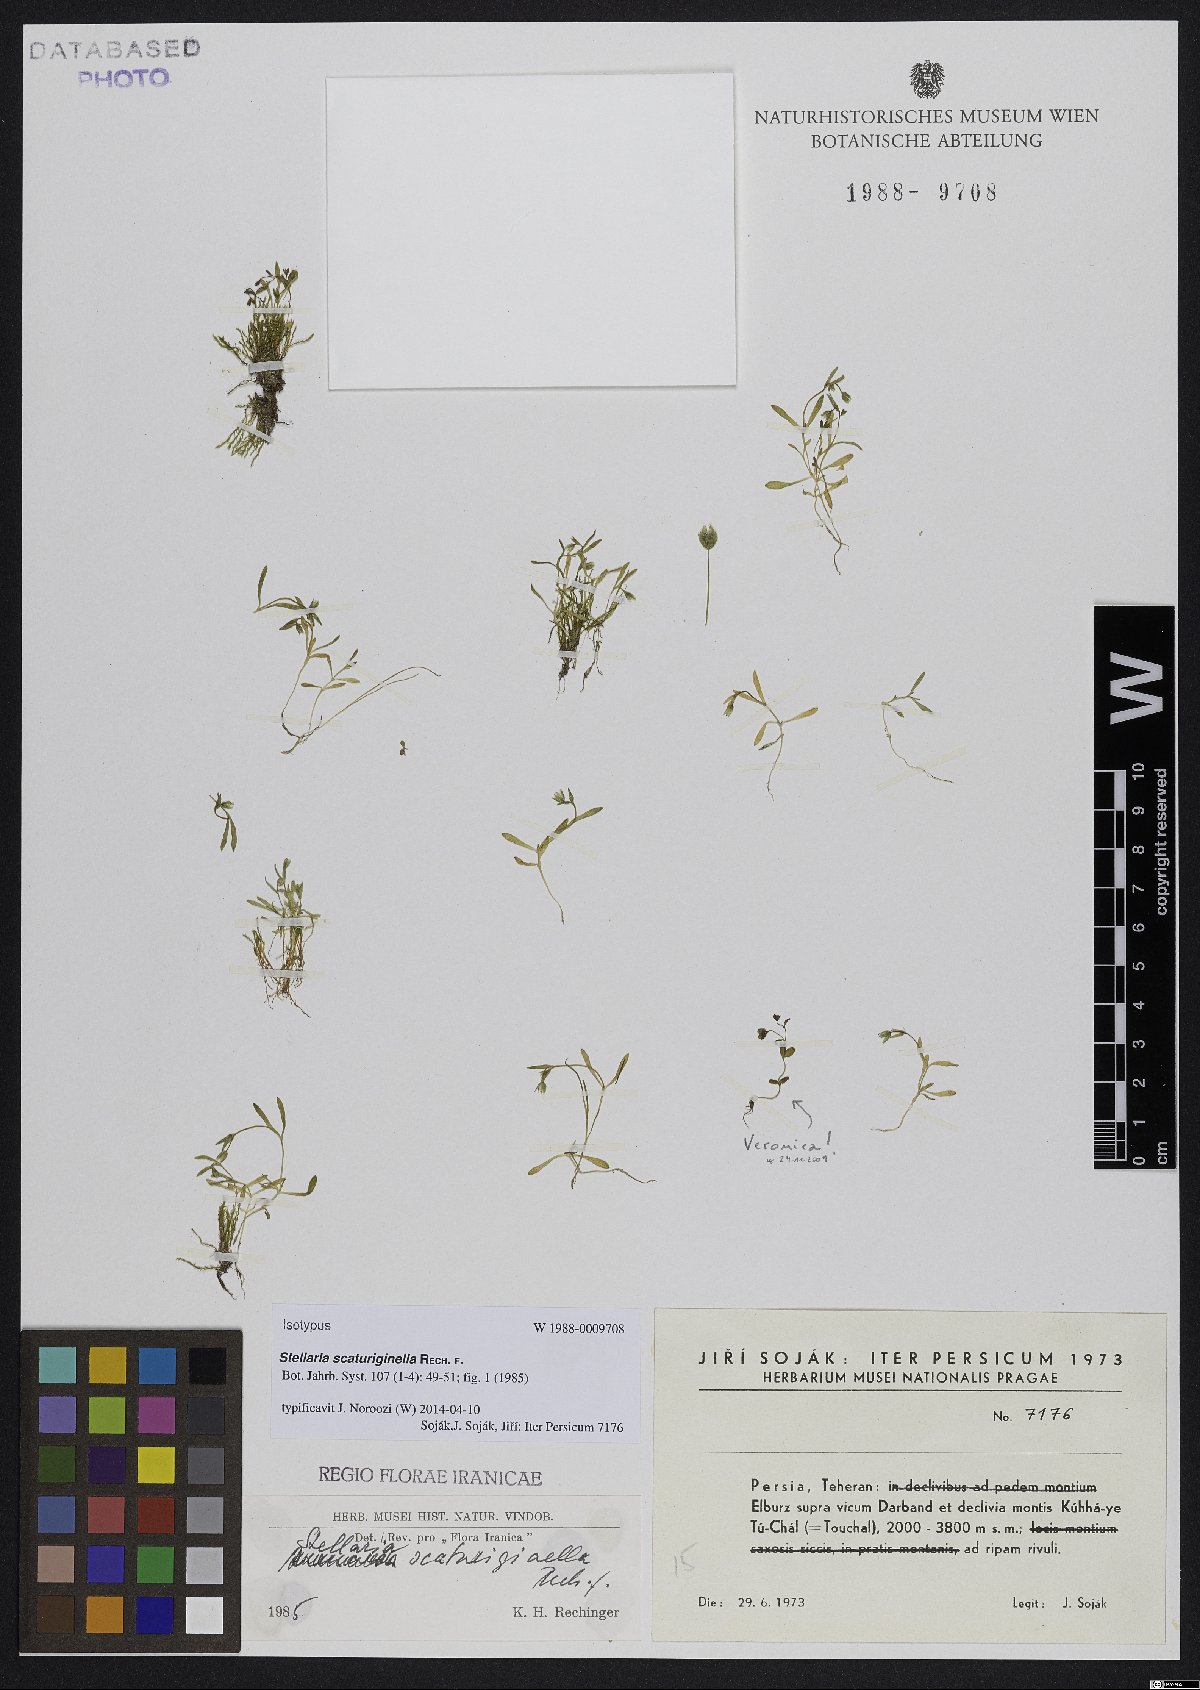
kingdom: Plantae
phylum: Tracheophyta
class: Magnoliopsida
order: Caryophyllales
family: Caryophyllaceae
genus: Stellaria
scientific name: Stellaria scaturiginella
